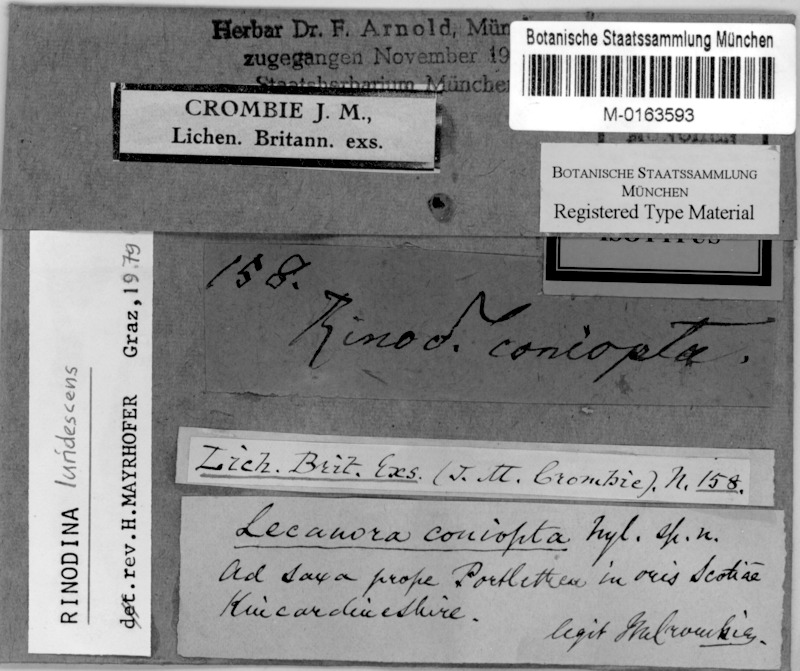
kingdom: Fungi
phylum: Ascomycota
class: Lecanoromycetes
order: Caliciales
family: Physciaceae
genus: Rinodina
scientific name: Rinodina luridescens
